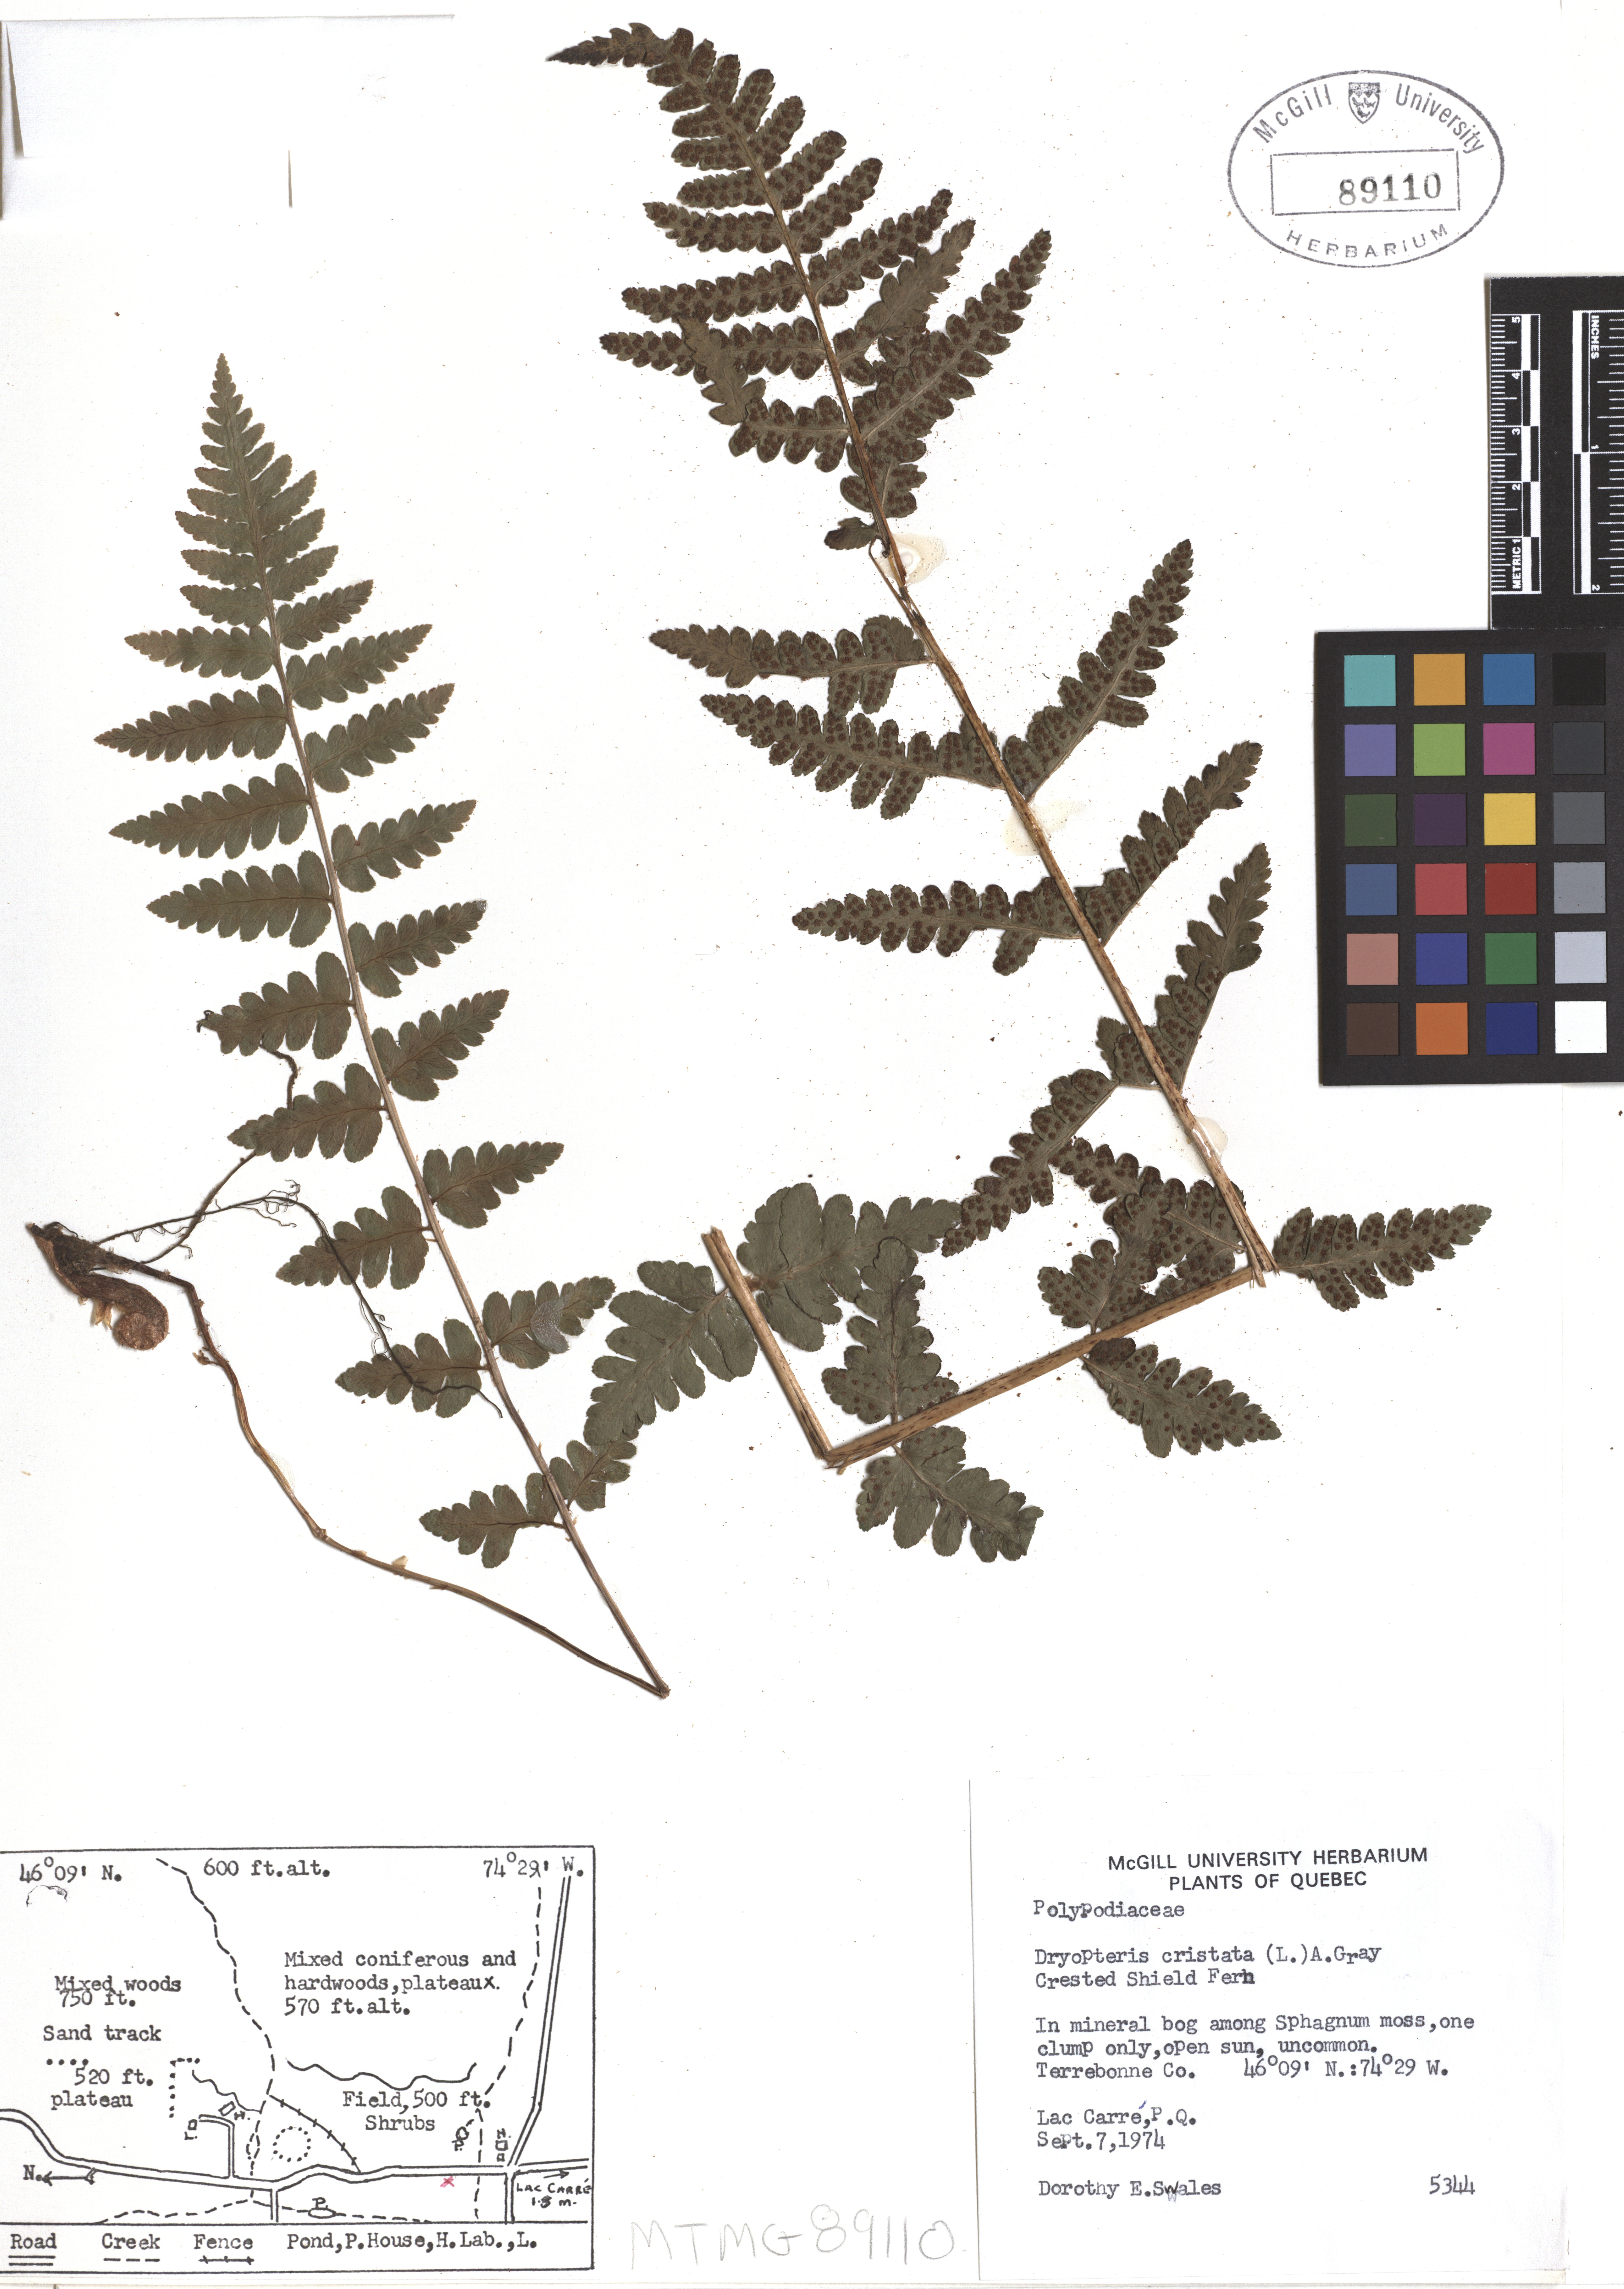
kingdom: Plantae
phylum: Tracheophyta
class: Polypodiopsida
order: Polypodiales
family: Dryopteridaceae
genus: Dryopteris
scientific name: Dryopteris cristata
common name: Crested wood fern
